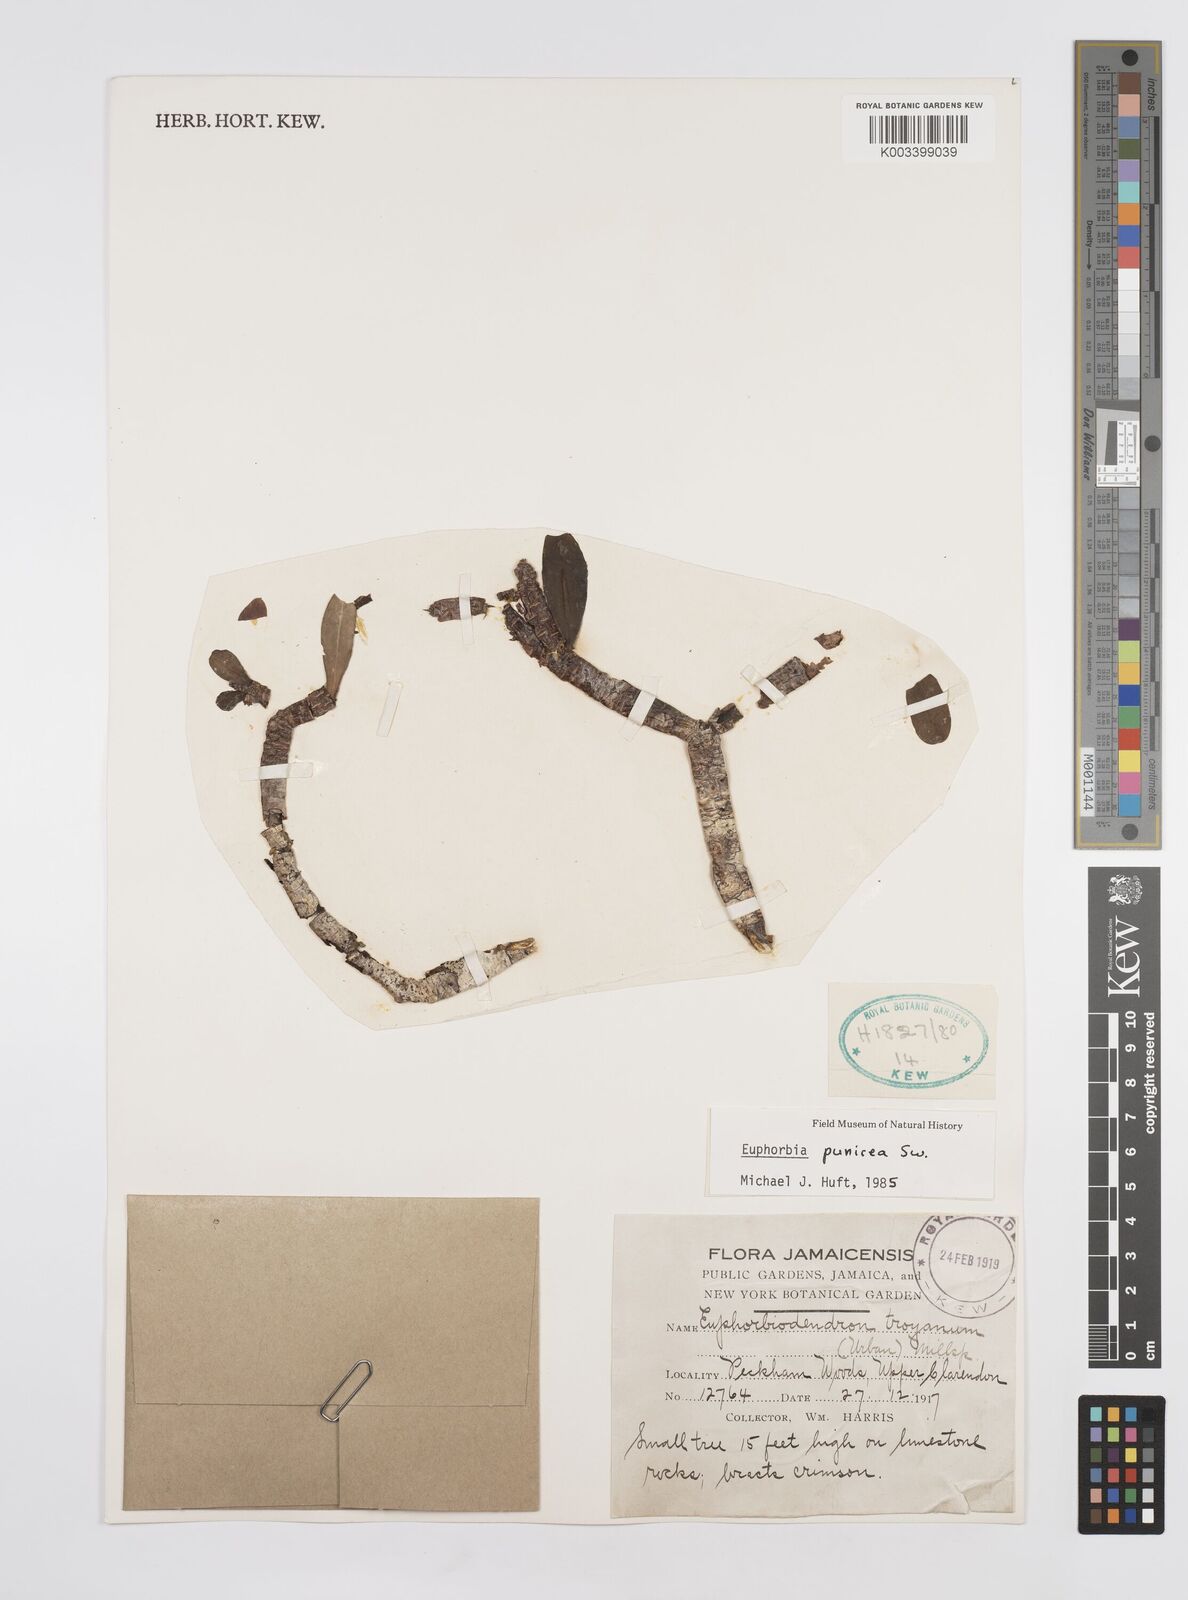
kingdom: Plantae
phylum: Tracheophyta
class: Magnoliopsida
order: Malpighiales
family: Euphorbiaceae
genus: Euphorbia
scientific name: Euphorbia punicea
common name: Vegetable-leather
